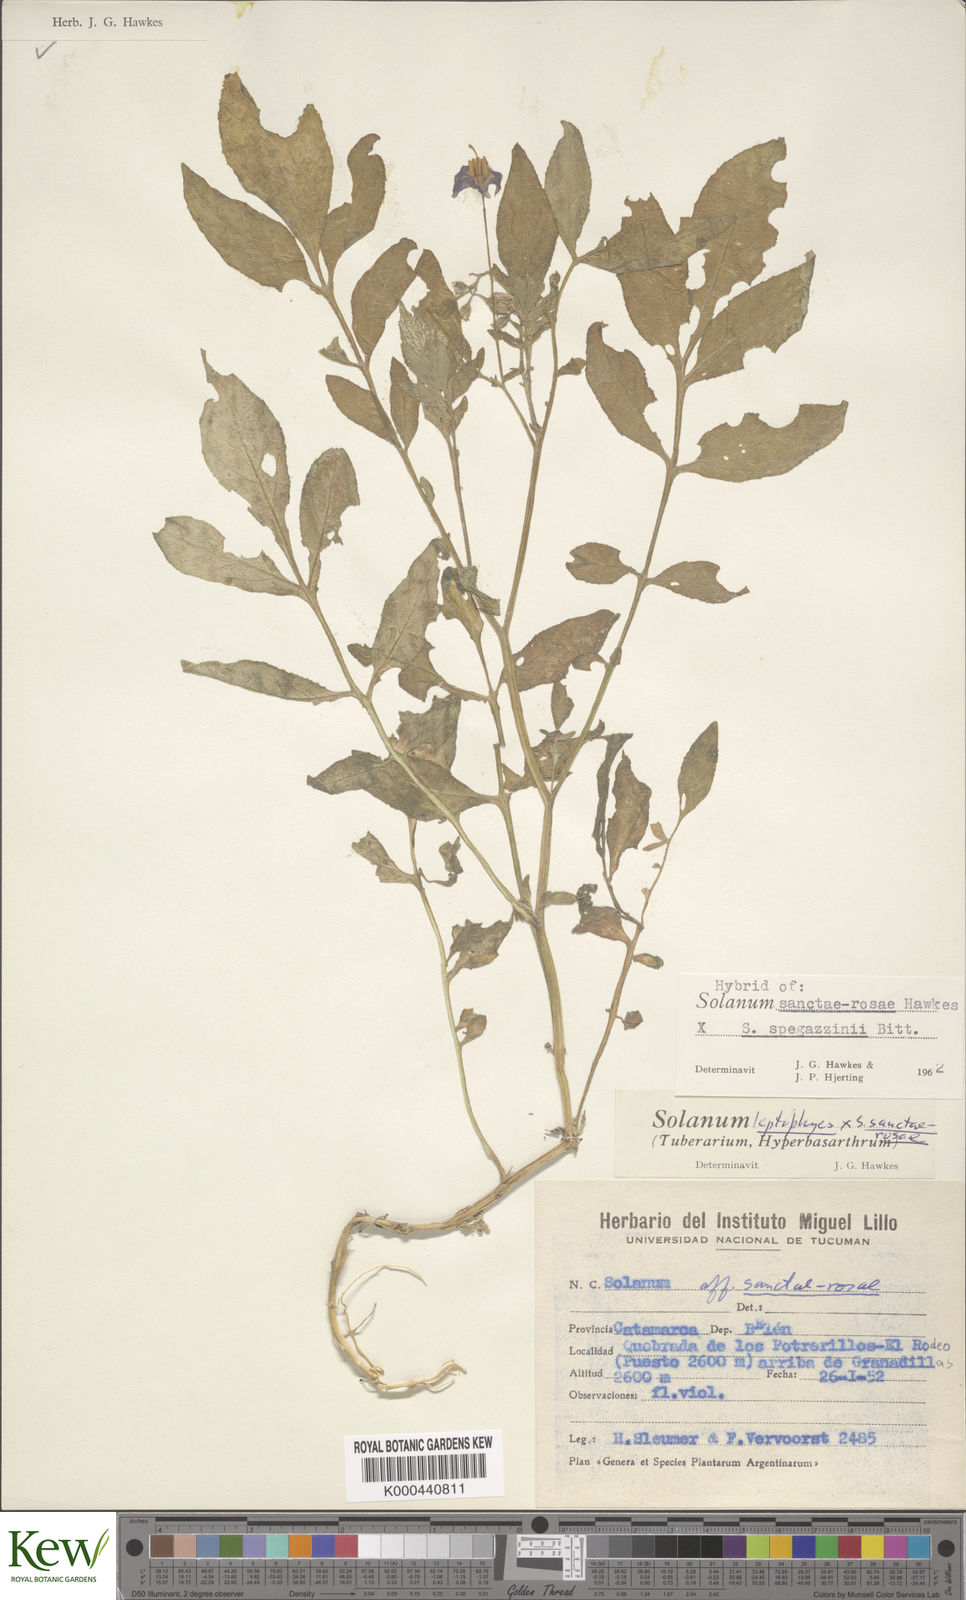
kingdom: Plantae
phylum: Tracheophyta
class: Magnoliopsida
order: Solanales
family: Solanaceae
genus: Solanum
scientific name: Solanum boliviense
